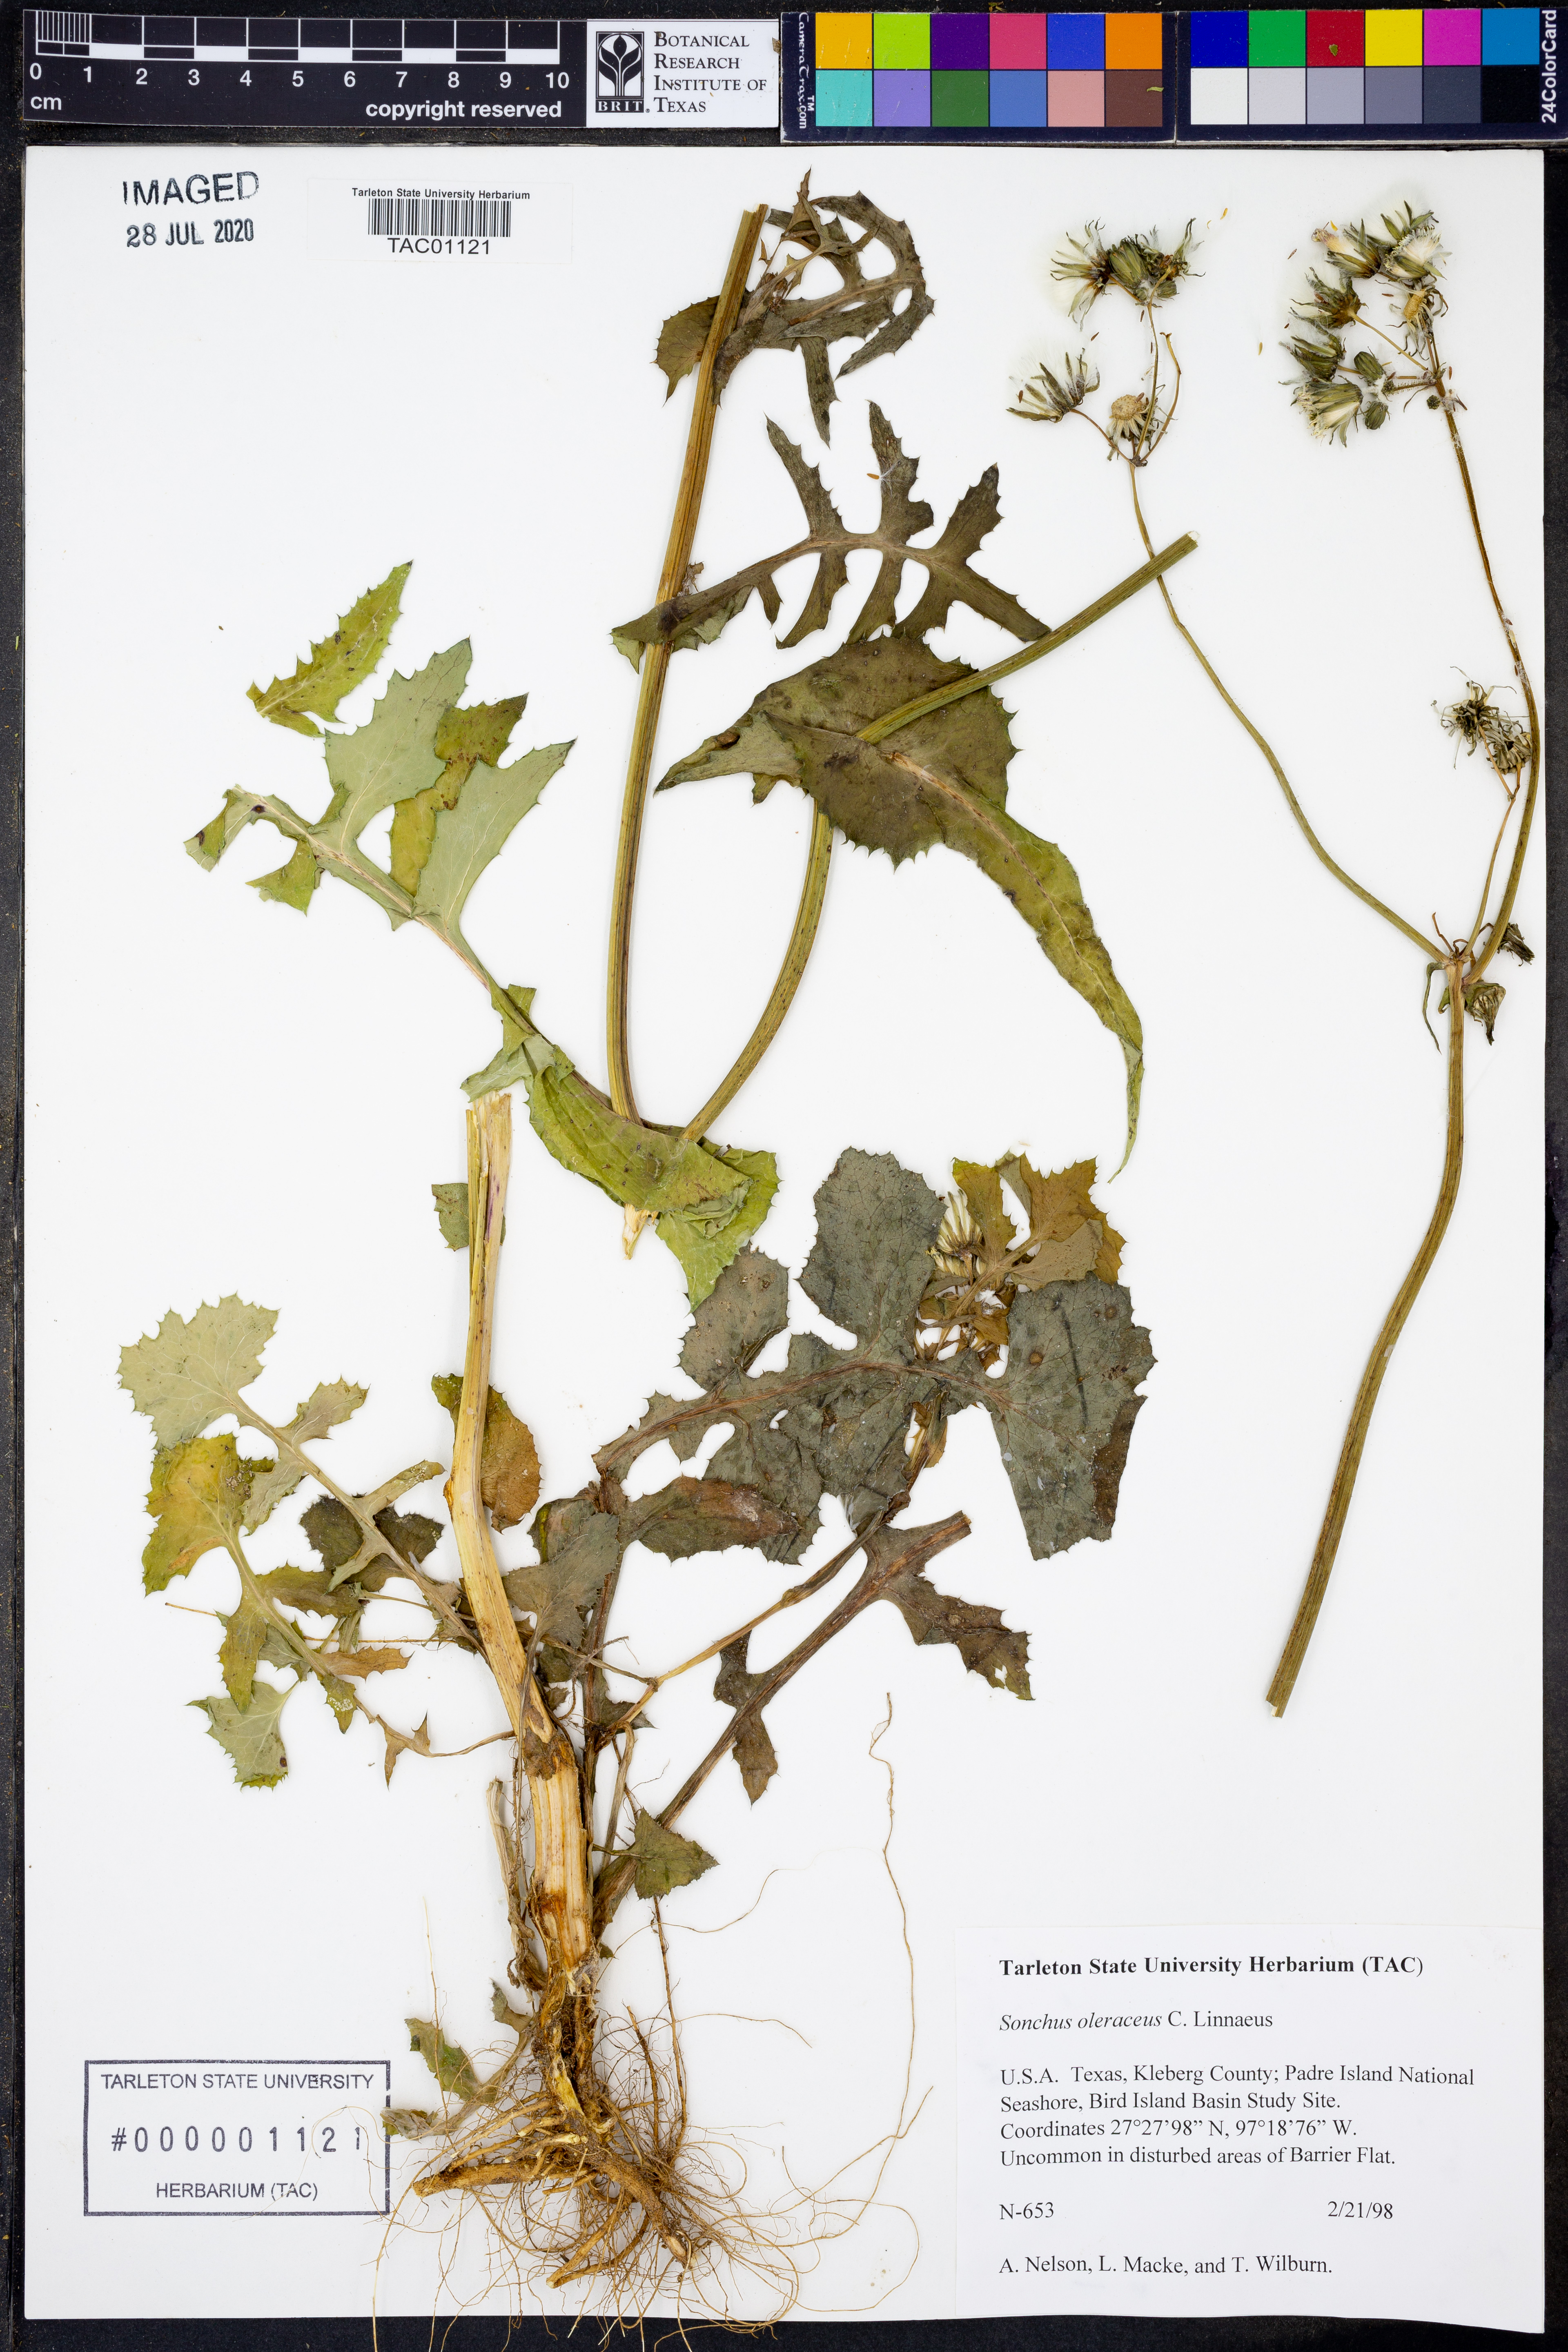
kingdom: Plantae
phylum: Tracheophyta
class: Magnoliopsida
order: Asterales
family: Asteraceae
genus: Sonchus
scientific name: Sonchus asper
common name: Prickly sow-thistle
